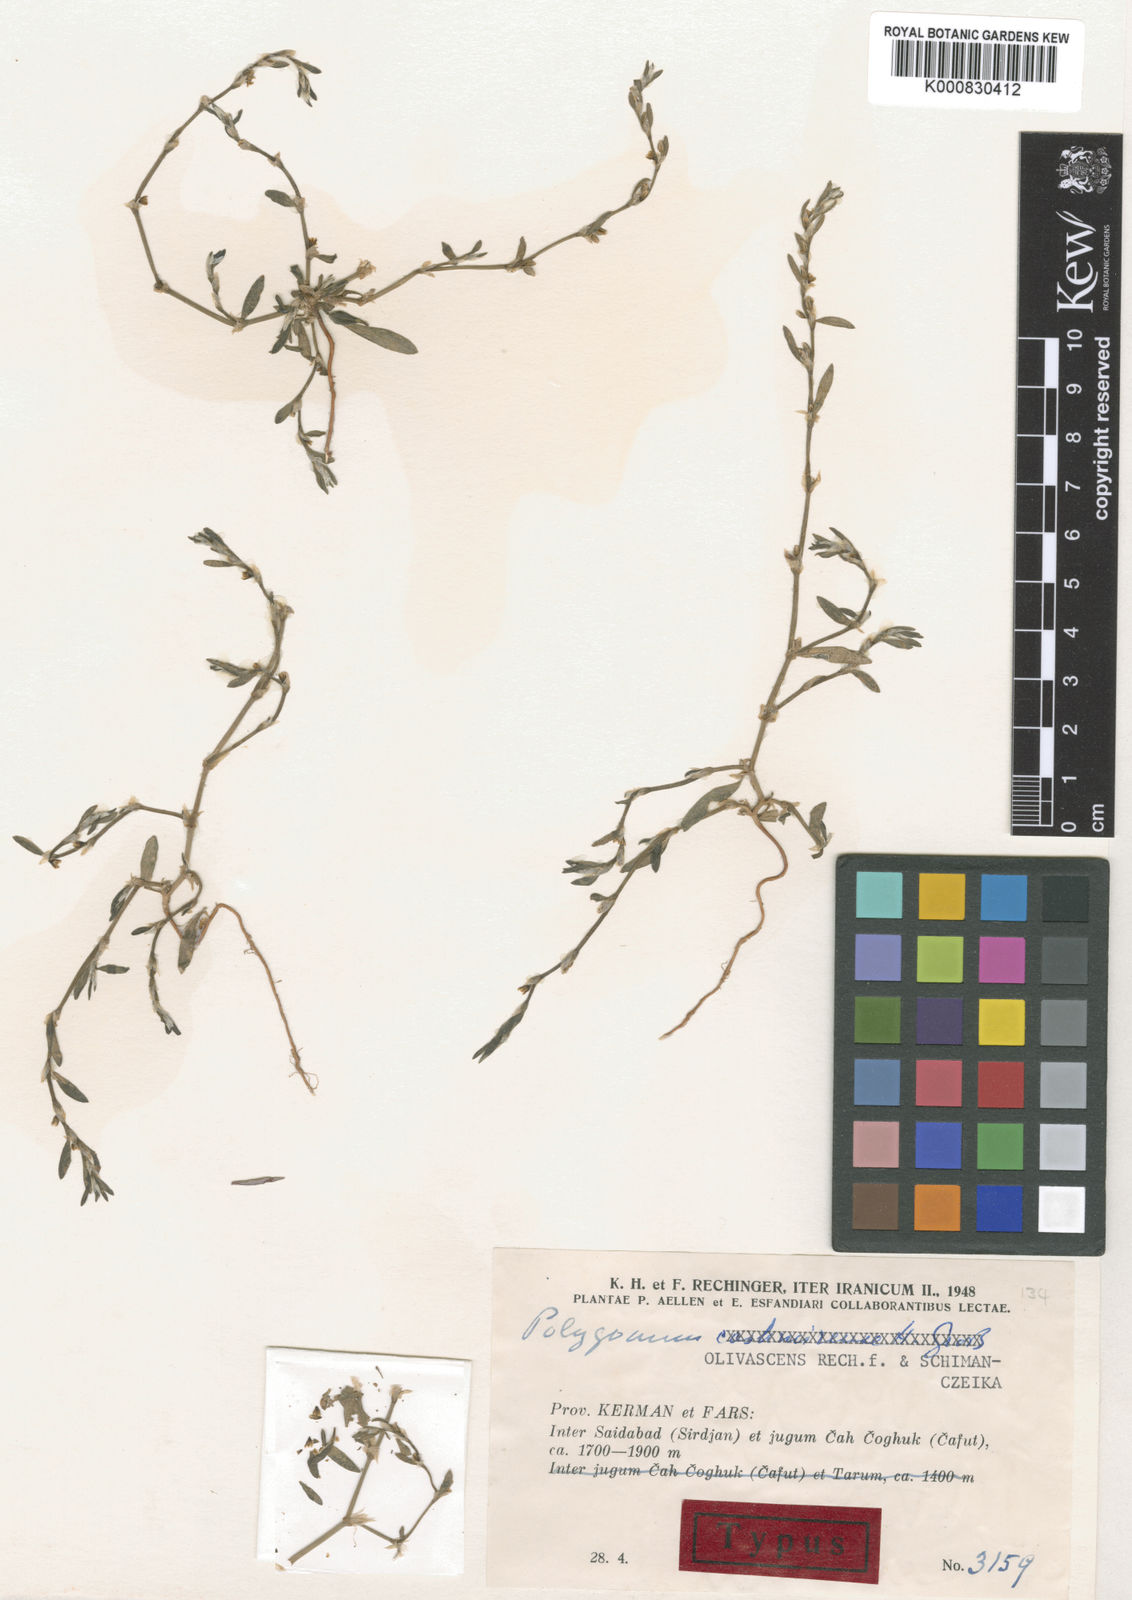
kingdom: Plantae
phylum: Tracheophyta
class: Magnoliopsida
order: Caryophyllales
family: Polygonaceae
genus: Polygonum
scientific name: Polygonum olivascens
